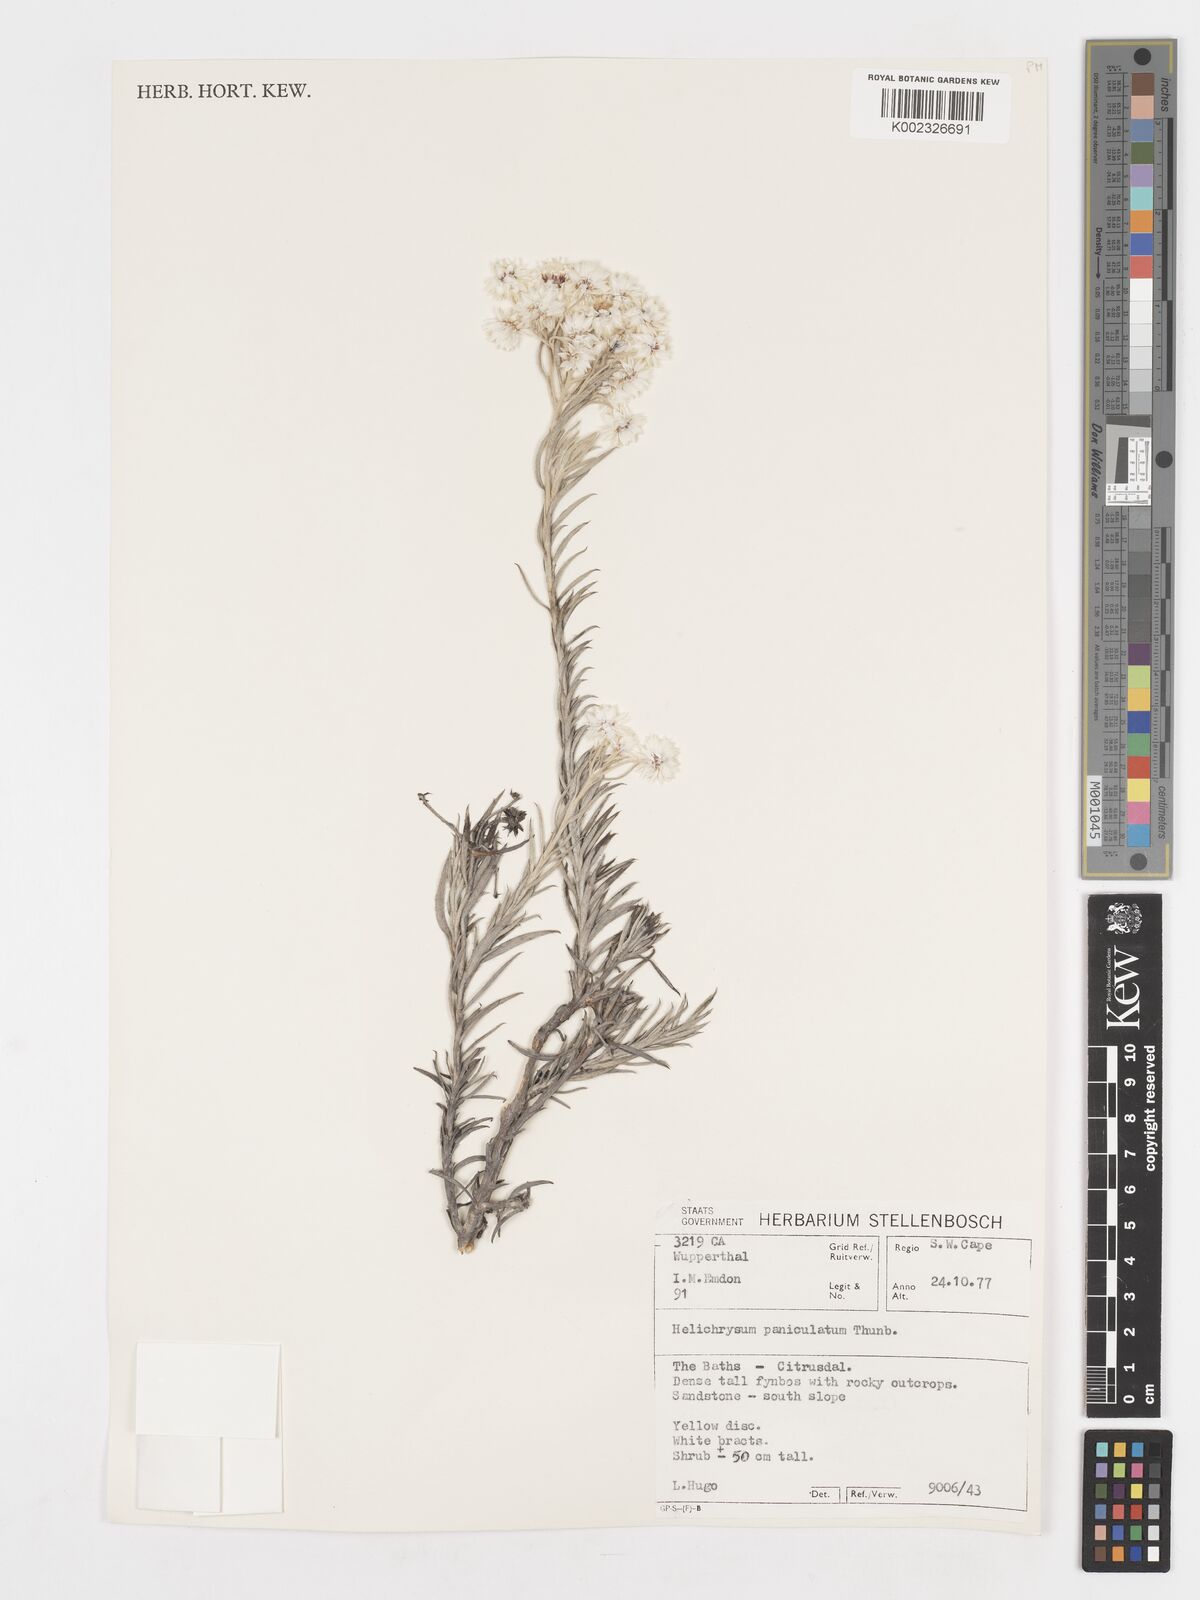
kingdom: Plantae
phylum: Tracheophyta
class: Magnoliopsida
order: Asterales
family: Asteraceae
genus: Achyranthemum
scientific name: Achyranthemum paniculatum
